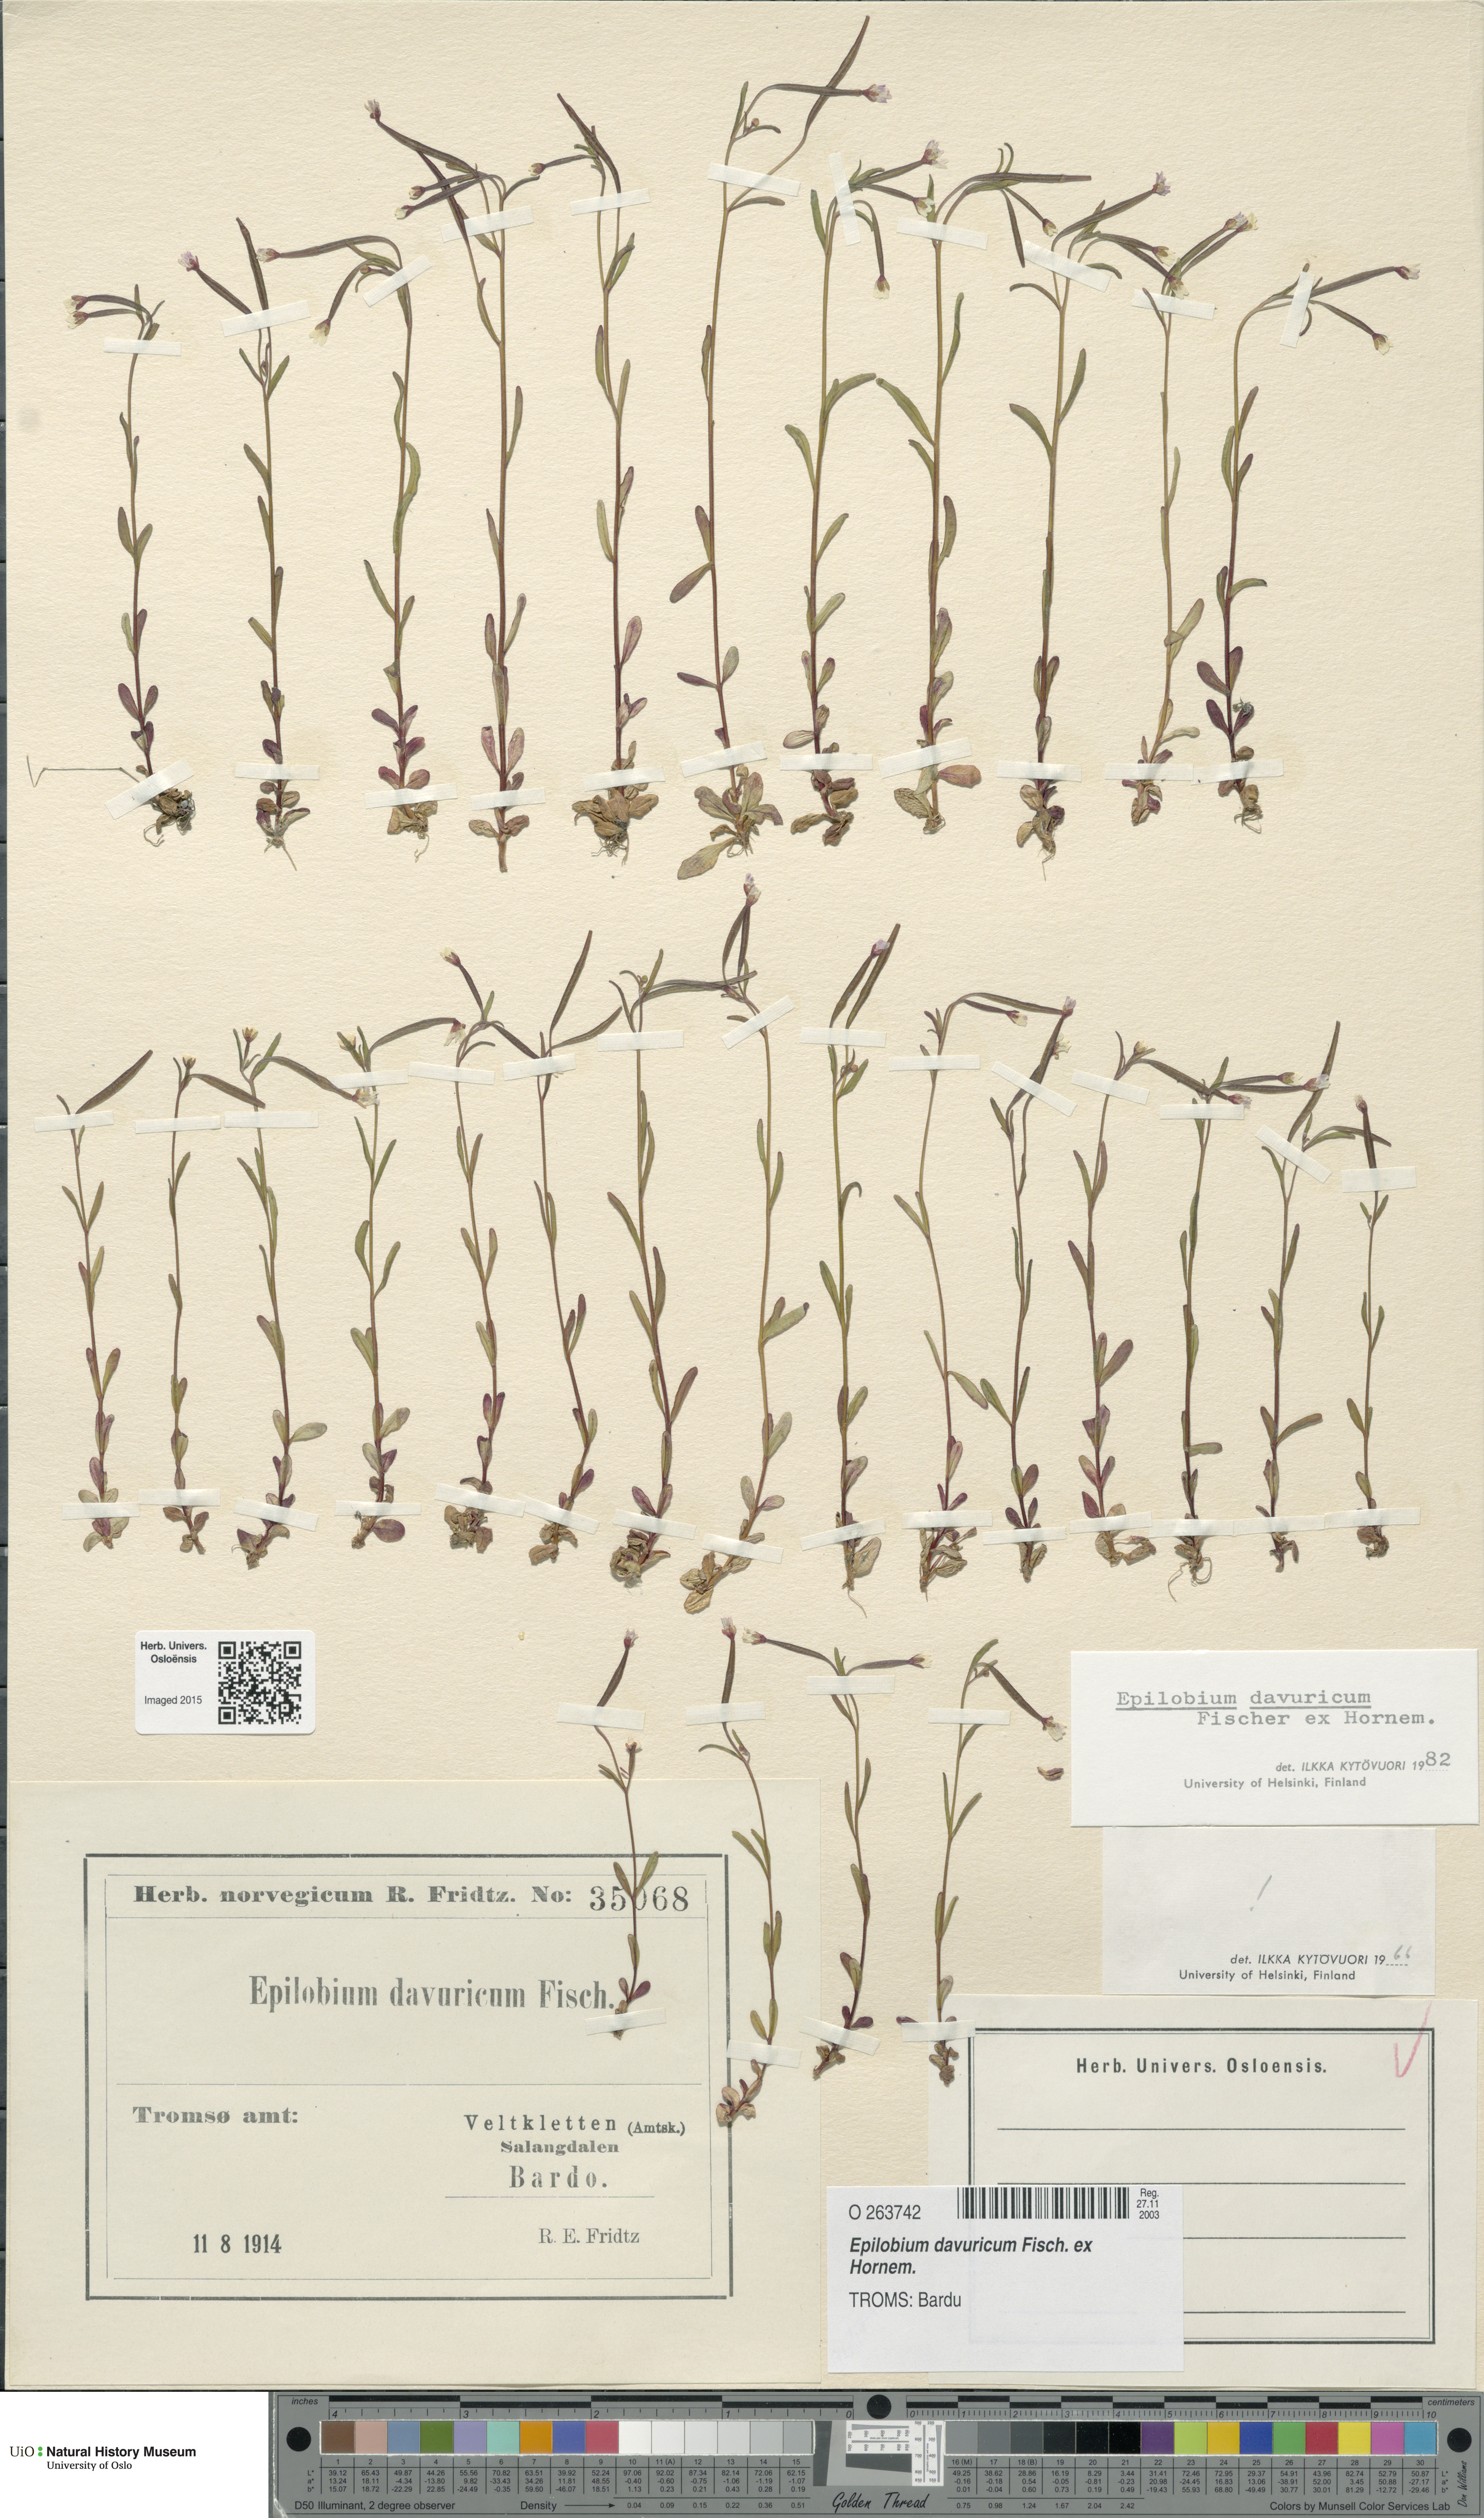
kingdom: Plantae
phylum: Tracheophyta
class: Magnoliopsida
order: Myrtales
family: Onagraceae
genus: Epilobium
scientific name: Epilobium davuricum
